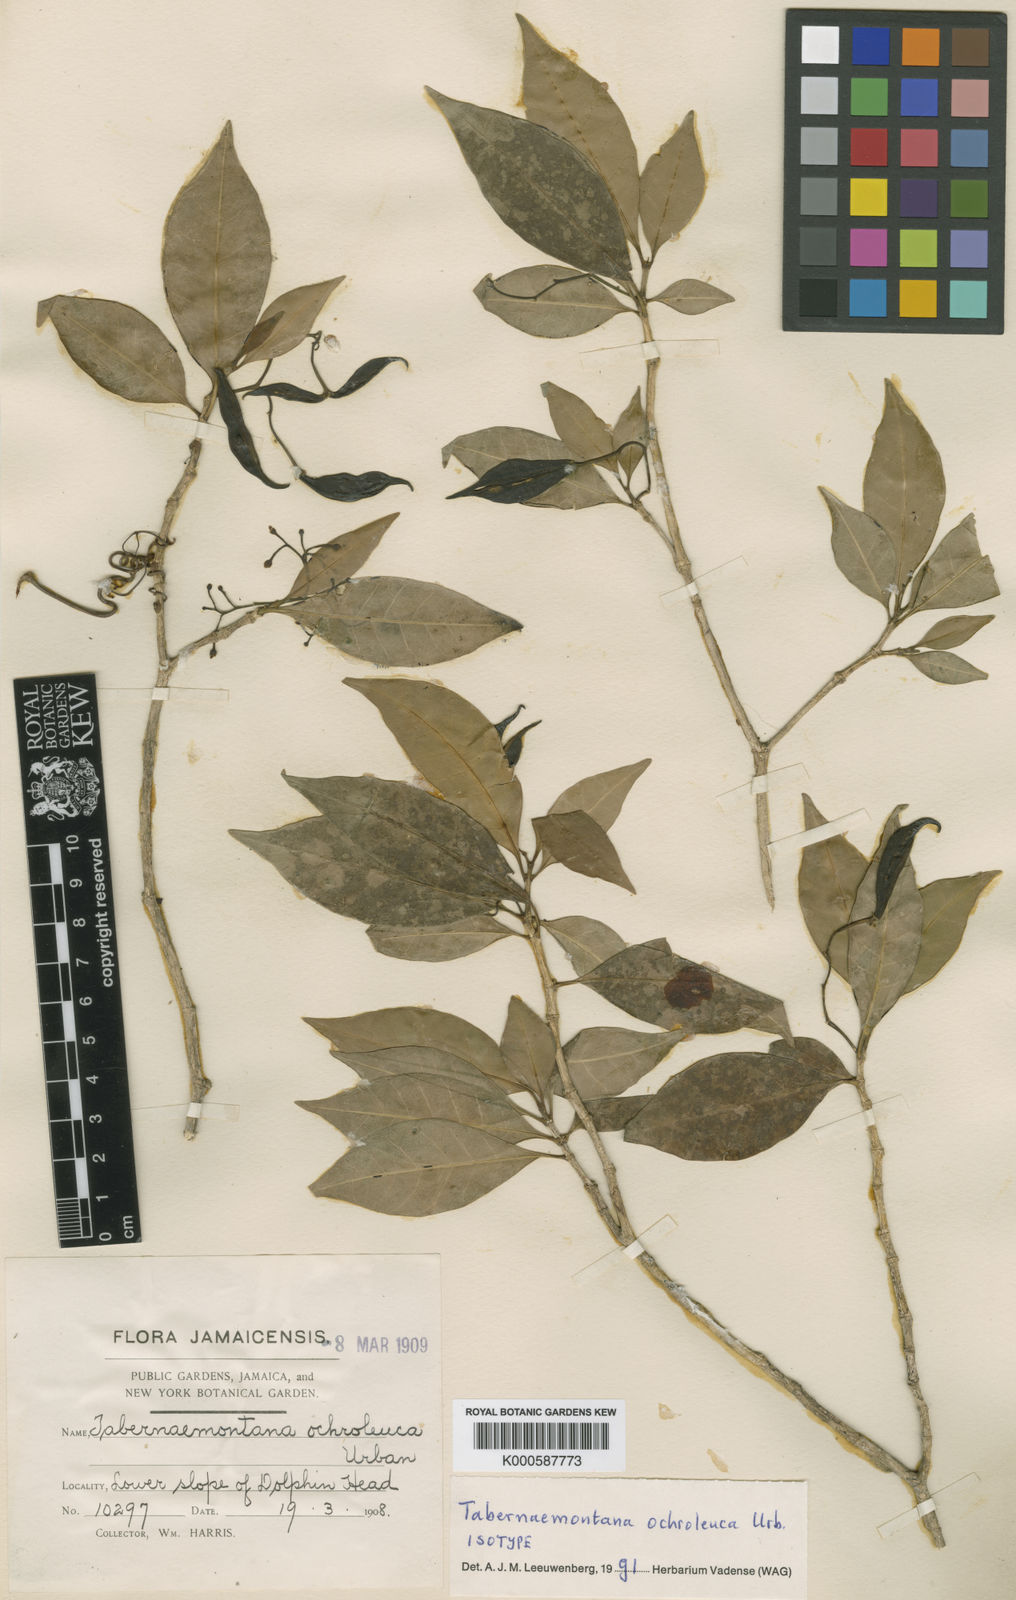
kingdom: Plantae
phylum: Tracheophyta
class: Magnoliopsida
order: Gentianales
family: Apocynaceae
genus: Tabernaemontana
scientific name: Tabernaemontana ochroleuca
